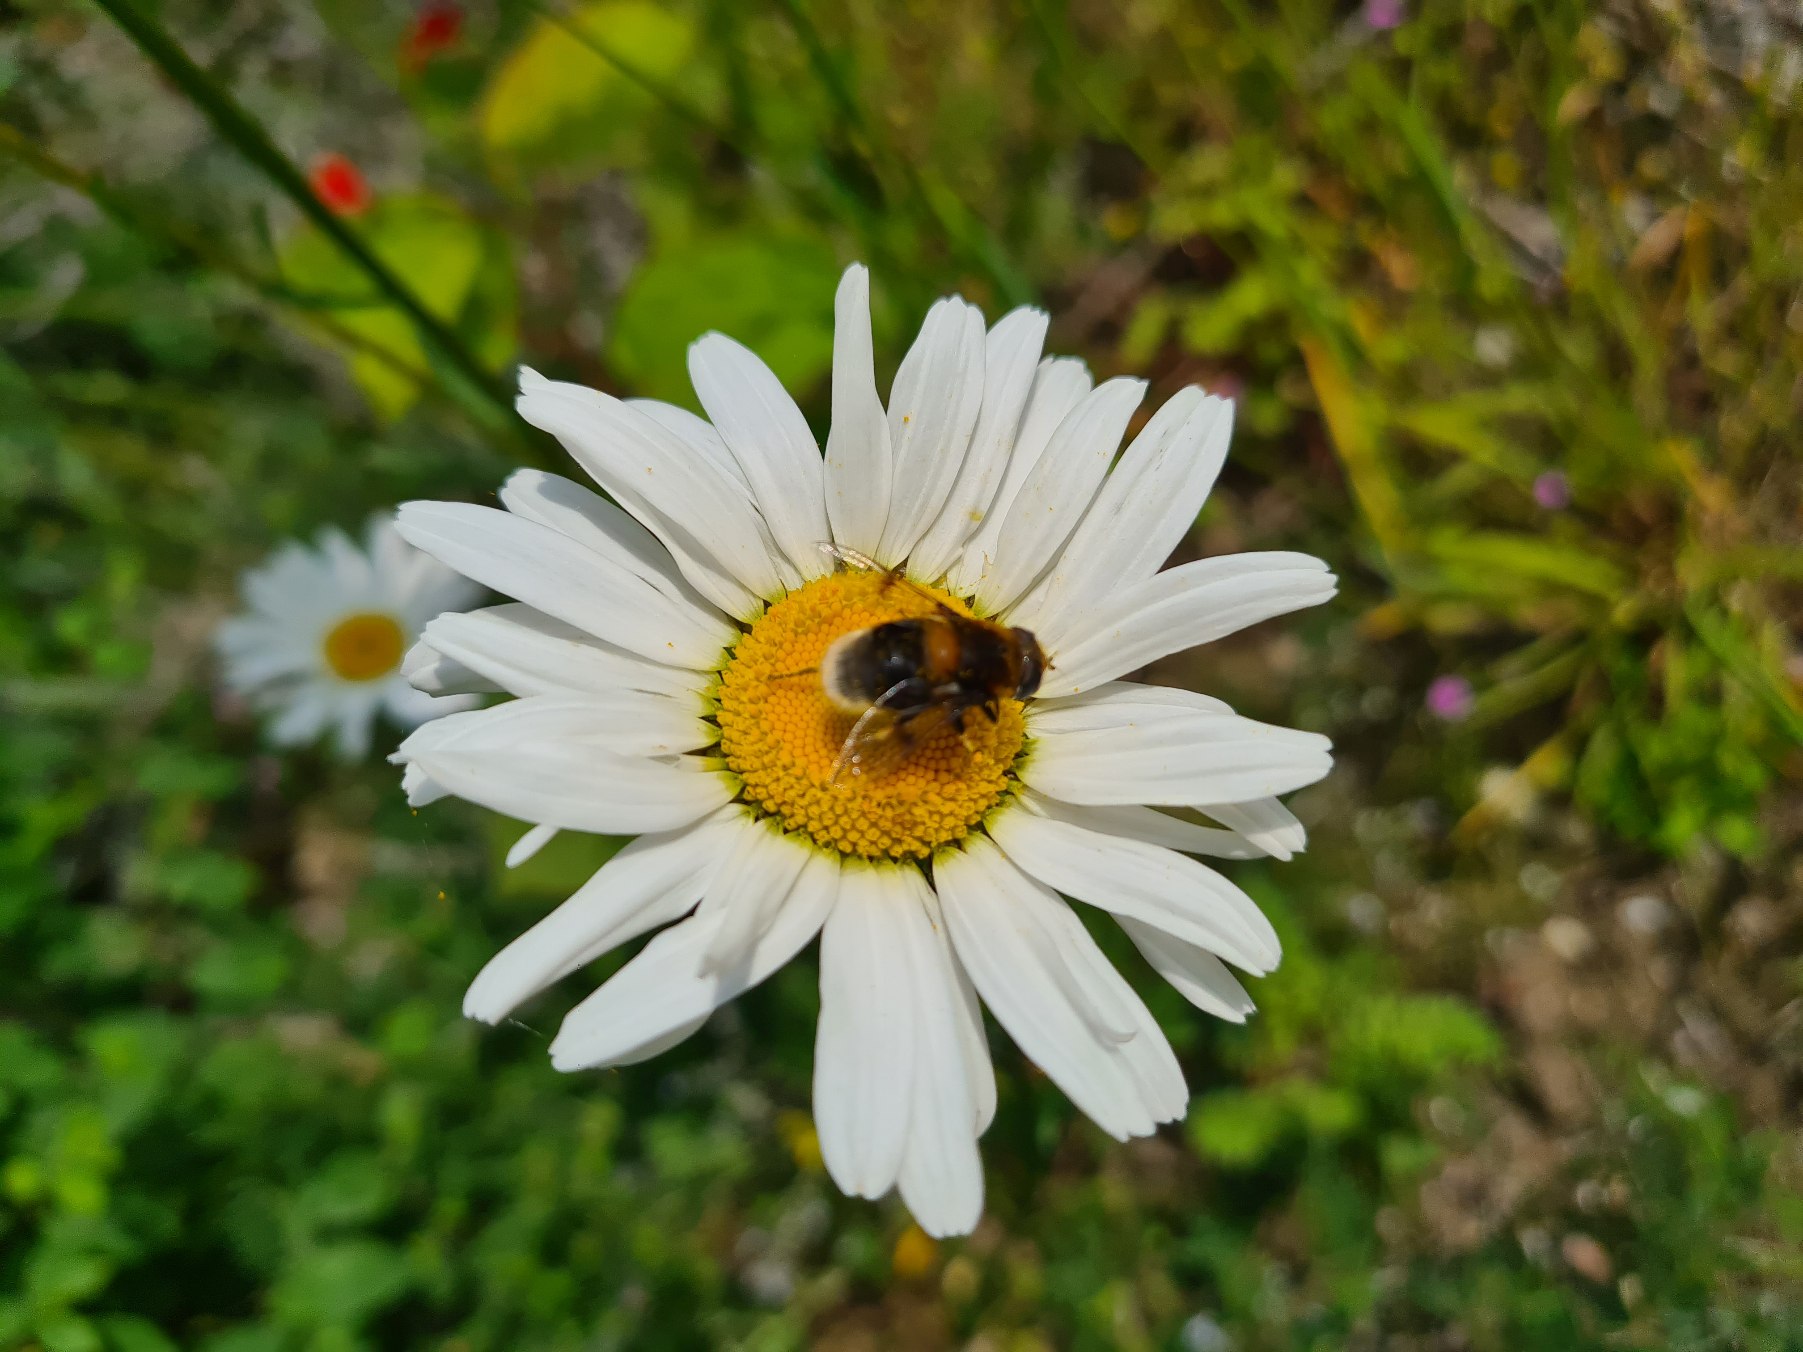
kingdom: Animalia
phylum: Arthropoda
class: Insecta
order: Diptera
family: Syrphidae
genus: Eristalis
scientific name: Eristalis intricaria
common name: Håret dyndflue
